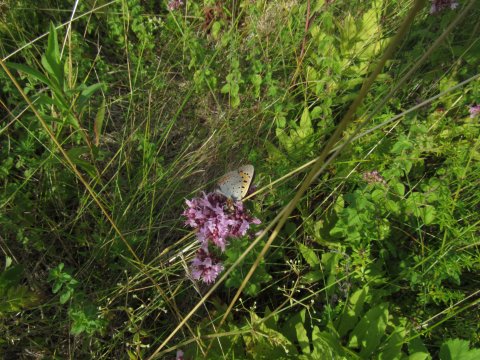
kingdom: Animalia
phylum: Arthropoda
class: Insecta
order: Lepidoptera
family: Lycaenidae
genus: Lycaena
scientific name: Lycaena phlaeas
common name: American Copper
